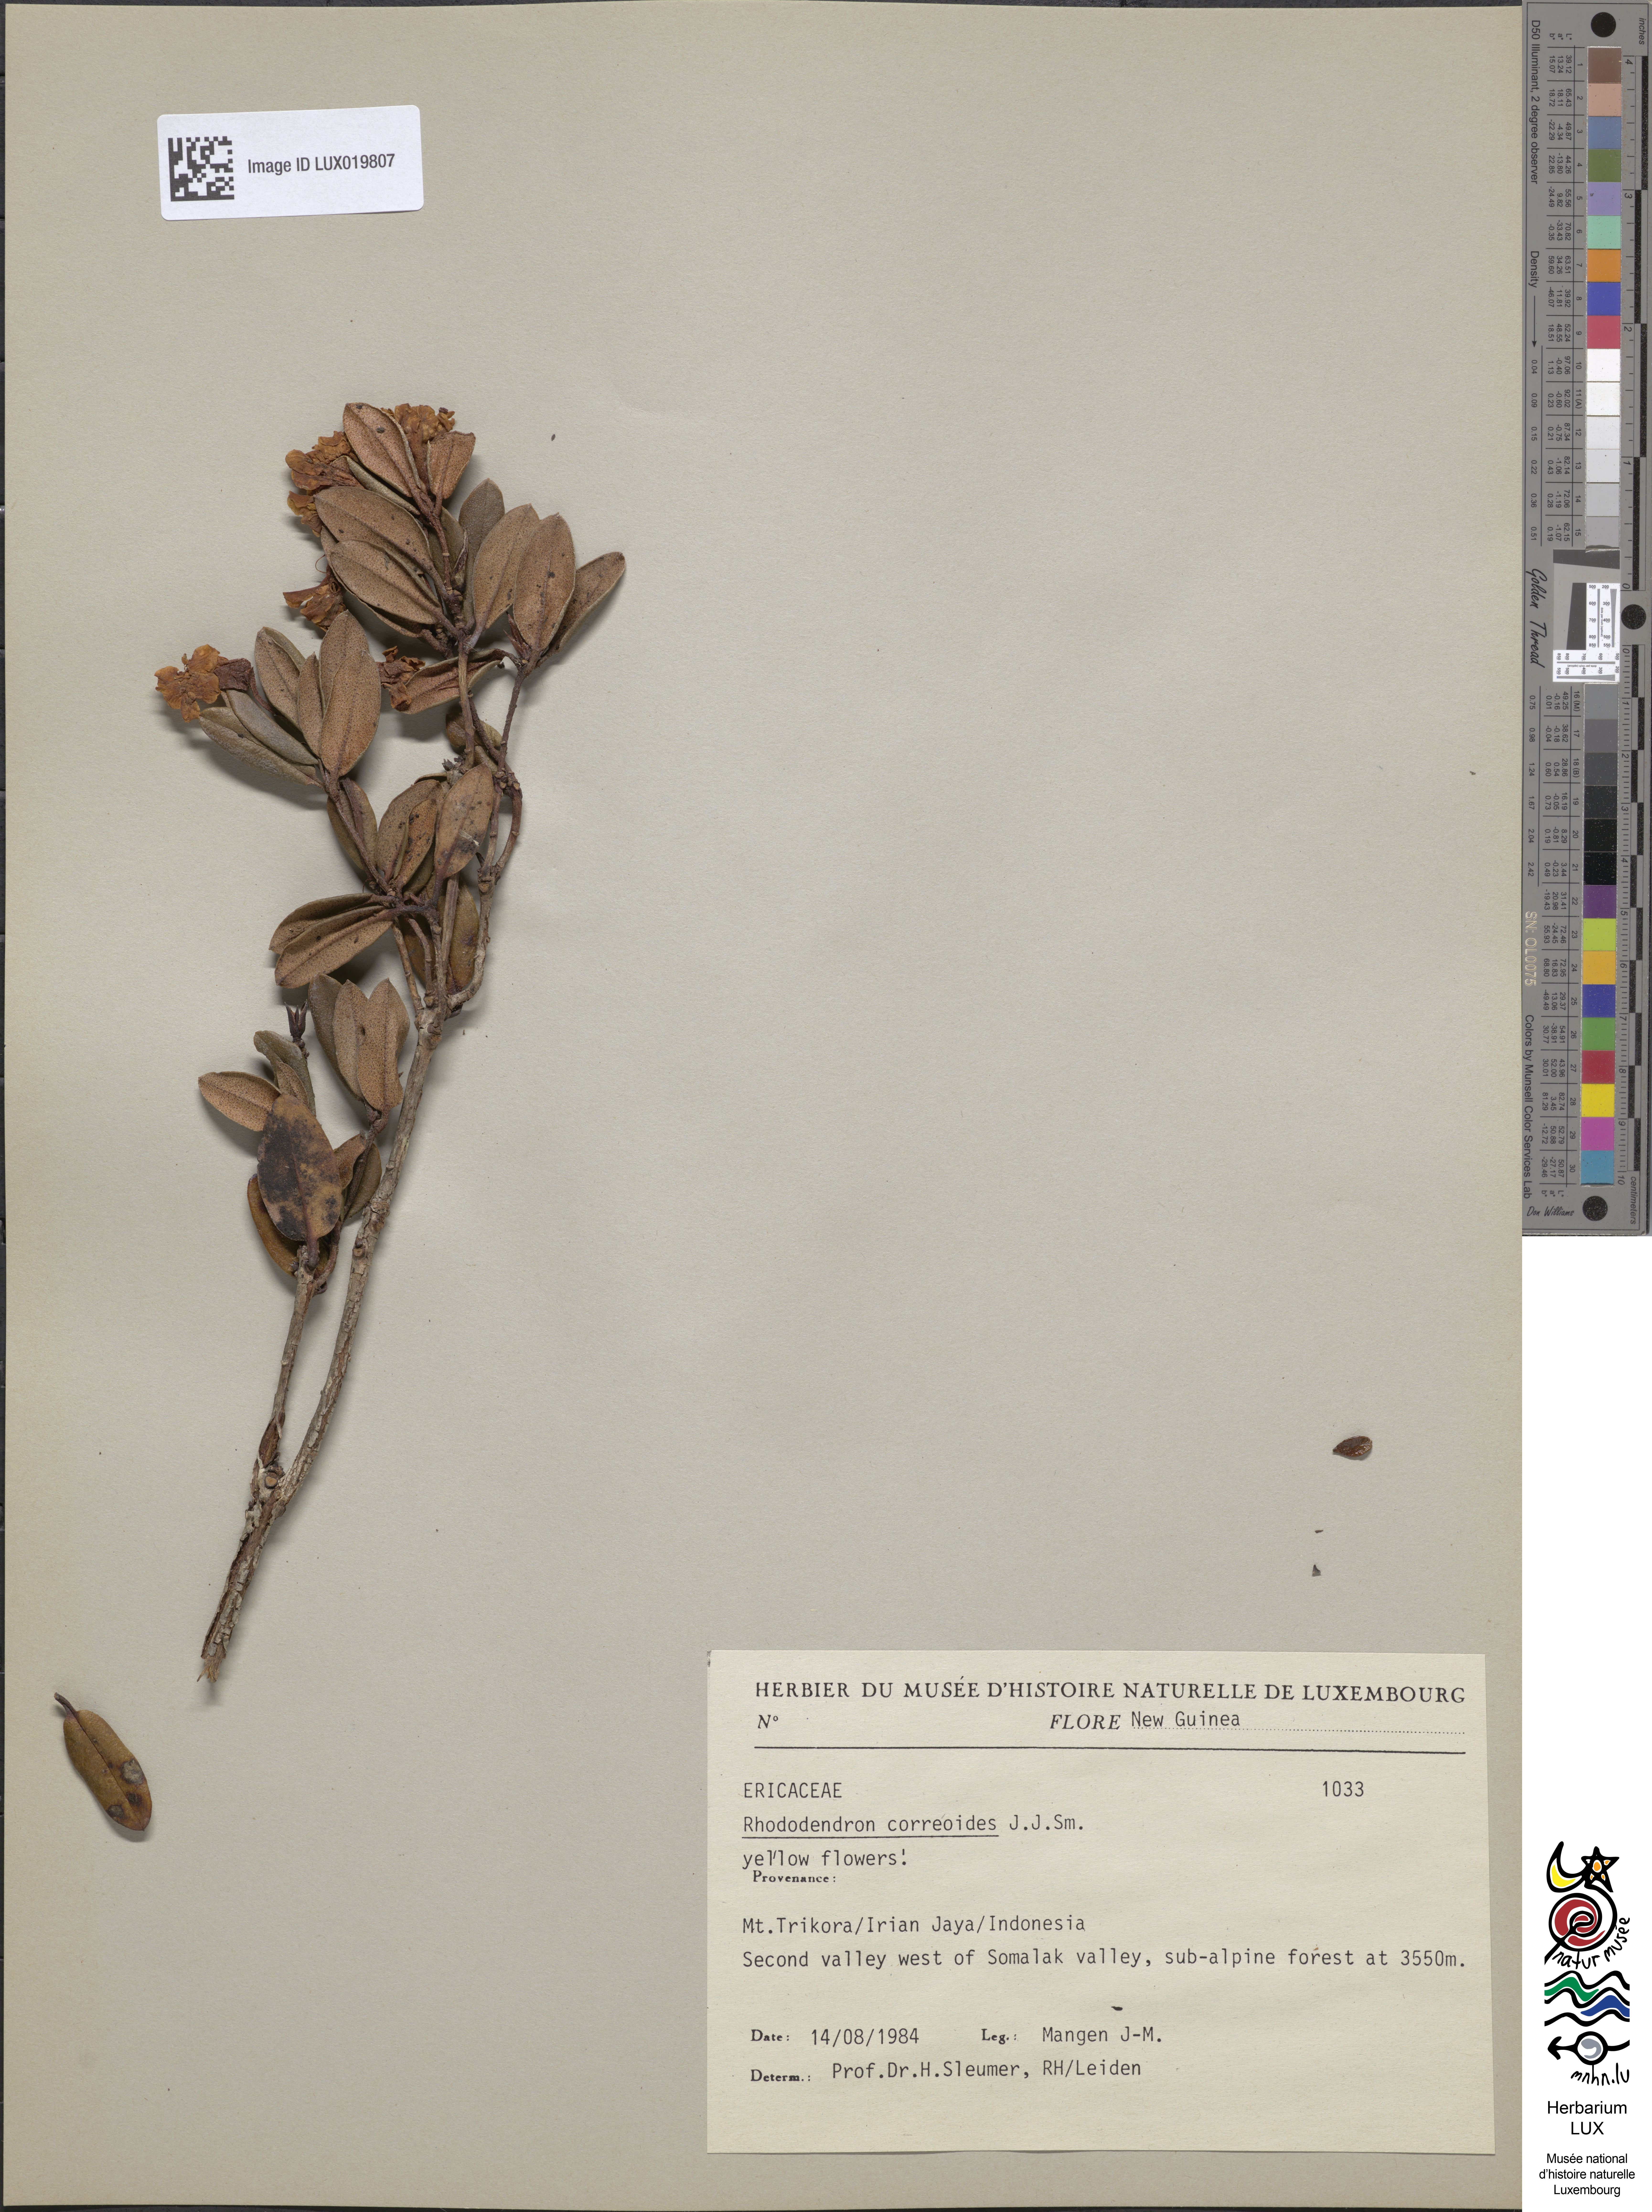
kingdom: Plantae
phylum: Tracheophyta
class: Magnoliopsida
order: Ericales
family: Ericaceae
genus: Rhododendron
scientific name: Rhododendron correoides
